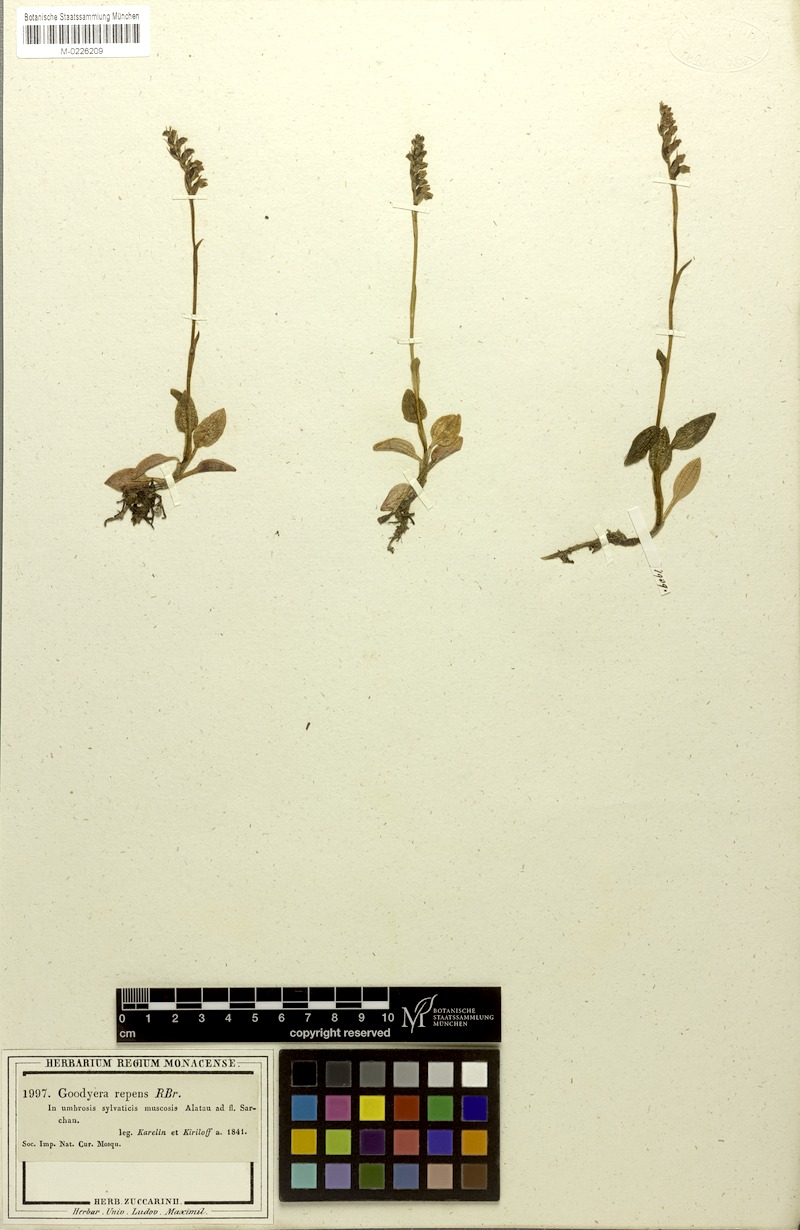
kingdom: Plantae
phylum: Tracheophyta
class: Liliopsida
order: Asparagales
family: Orchidaceae
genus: Goodyera
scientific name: Goodyera repens
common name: Creeping lady's-tresses
